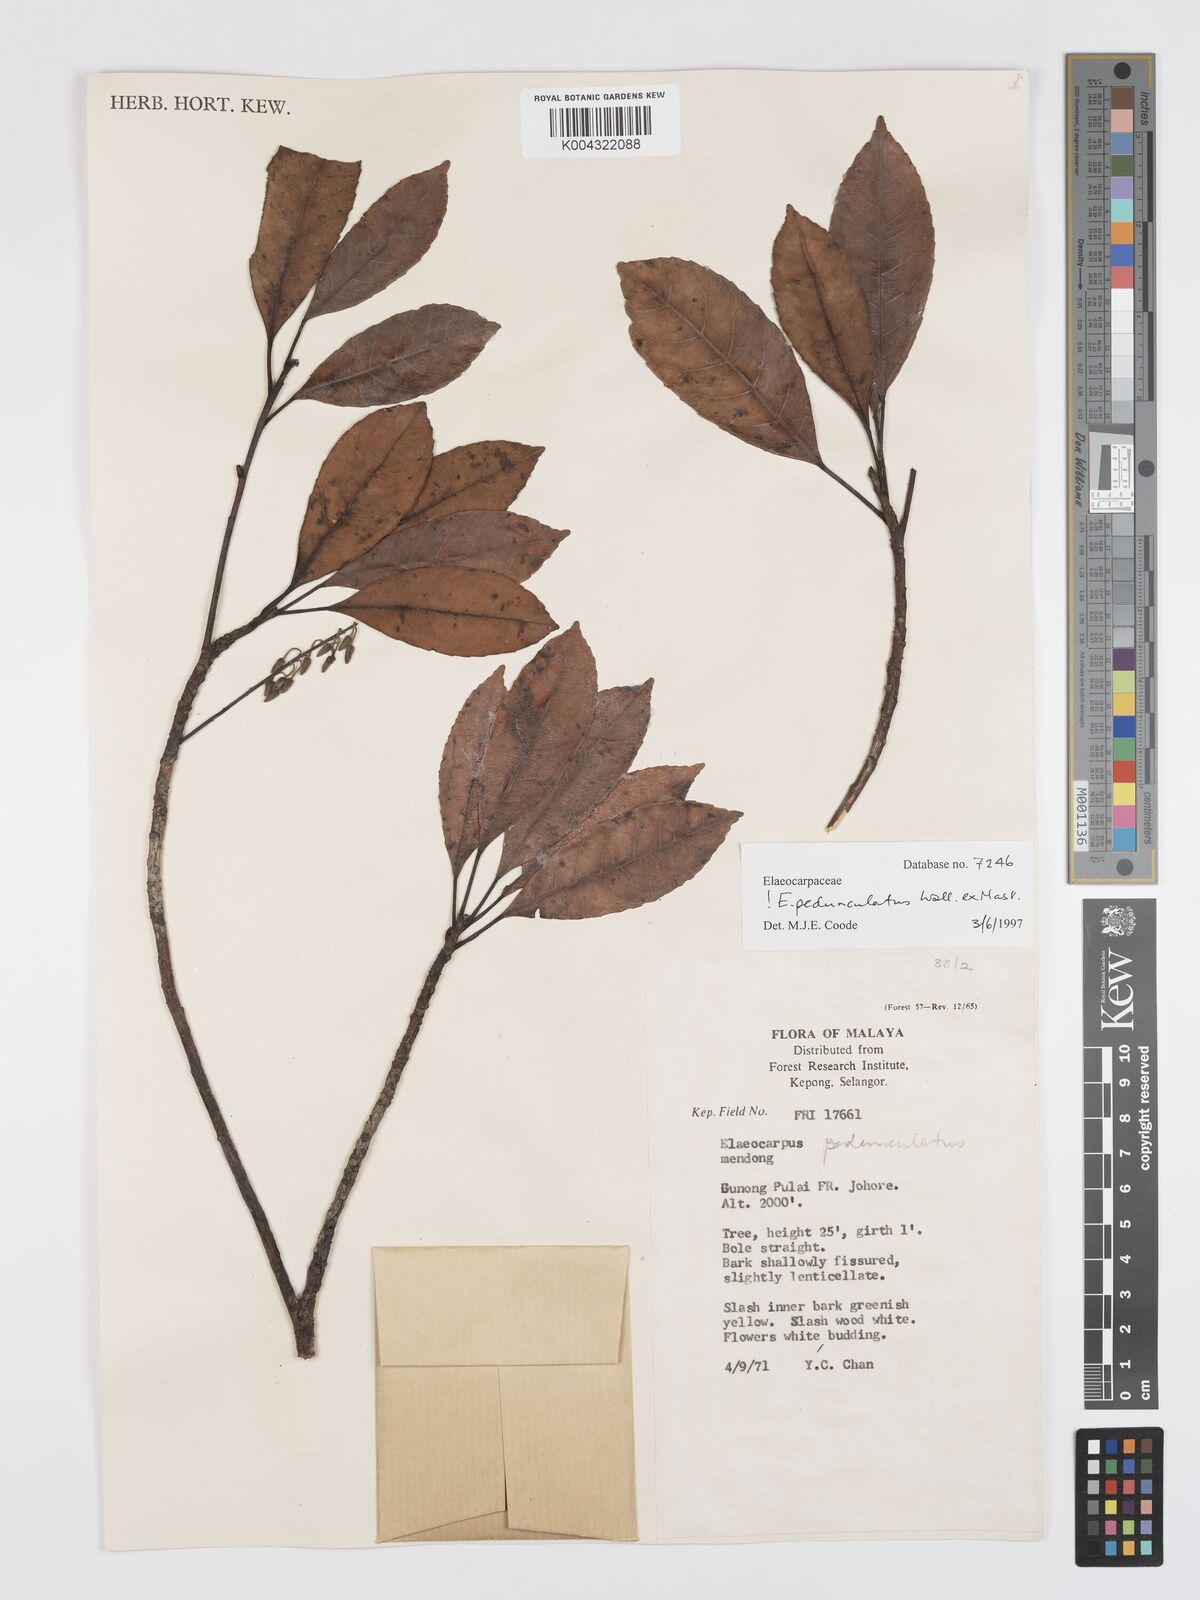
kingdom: Plantae
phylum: Tracheophyta
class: Magnoliopsida
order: Oxalidales
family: Elaeocarpaceae
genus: Elaeocarpus
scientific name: Elaeocarpus pedunculatus
